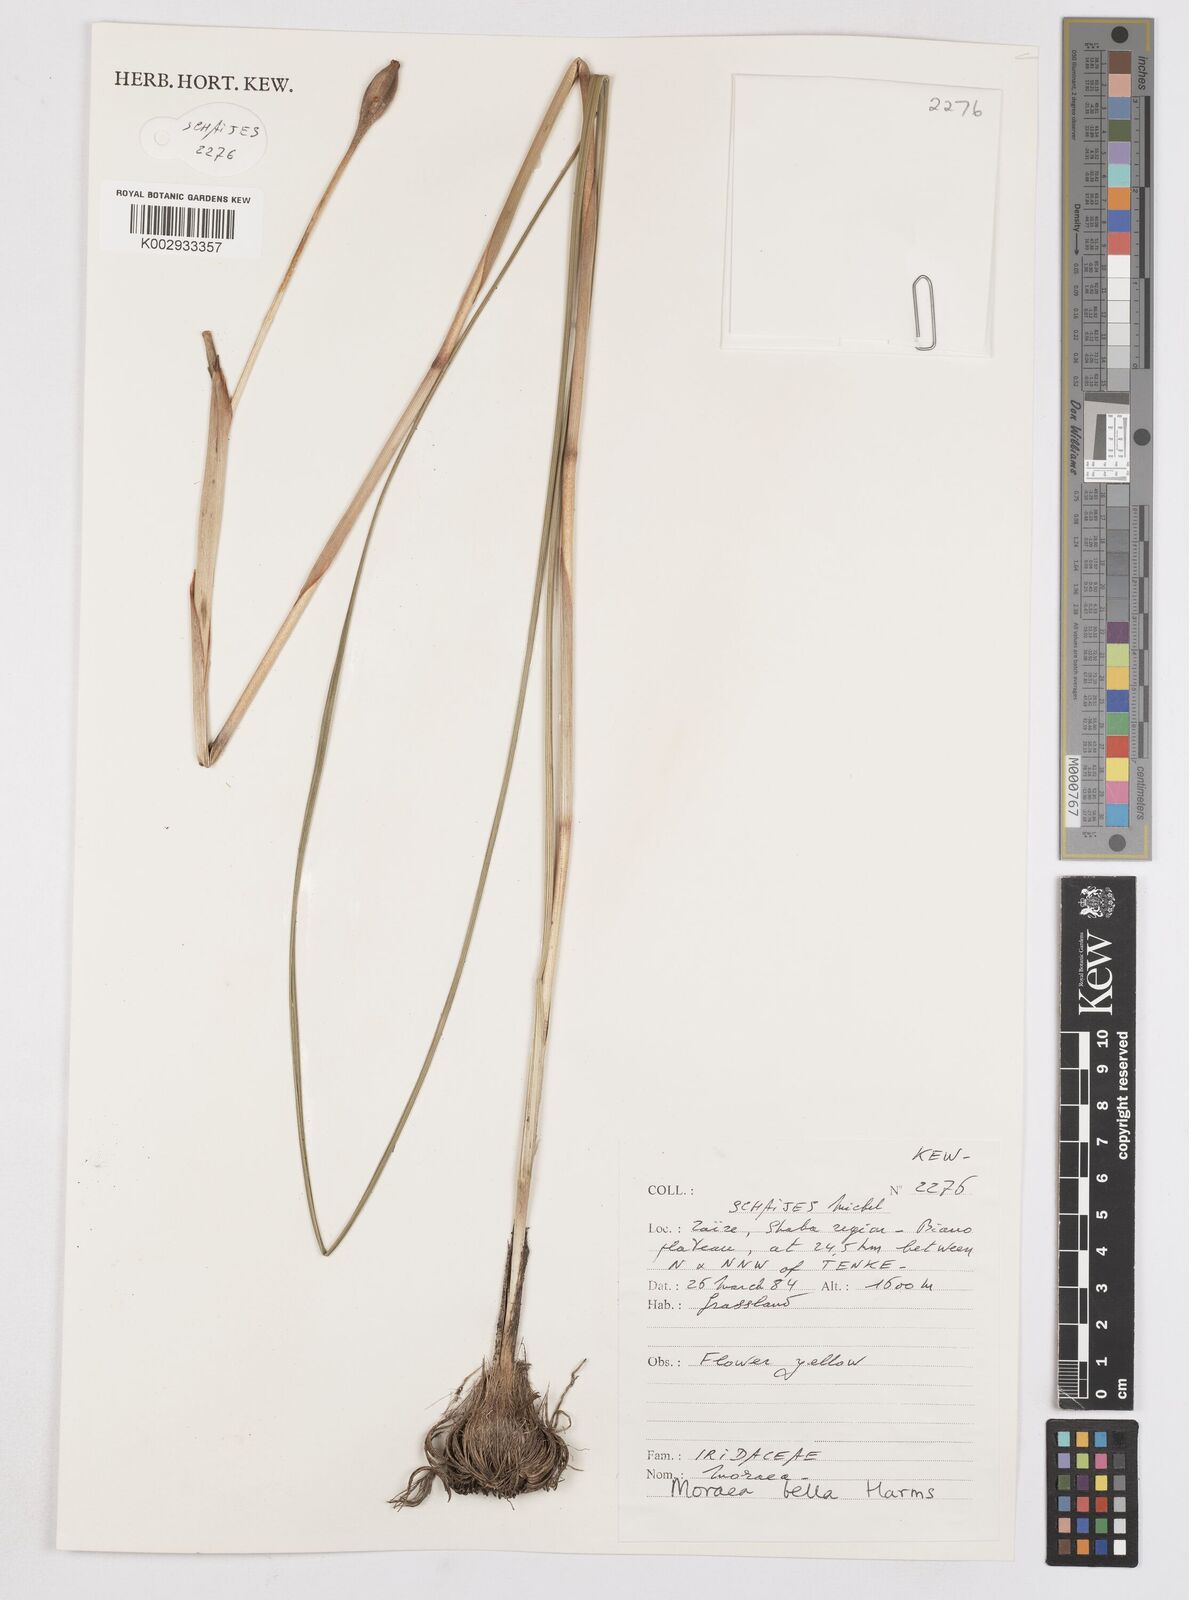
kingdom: Plantae
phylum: Tracheophyta
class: Liliopsida
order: Asparagales
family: Iridaceae
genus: Moraea
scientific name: Moraea bella
